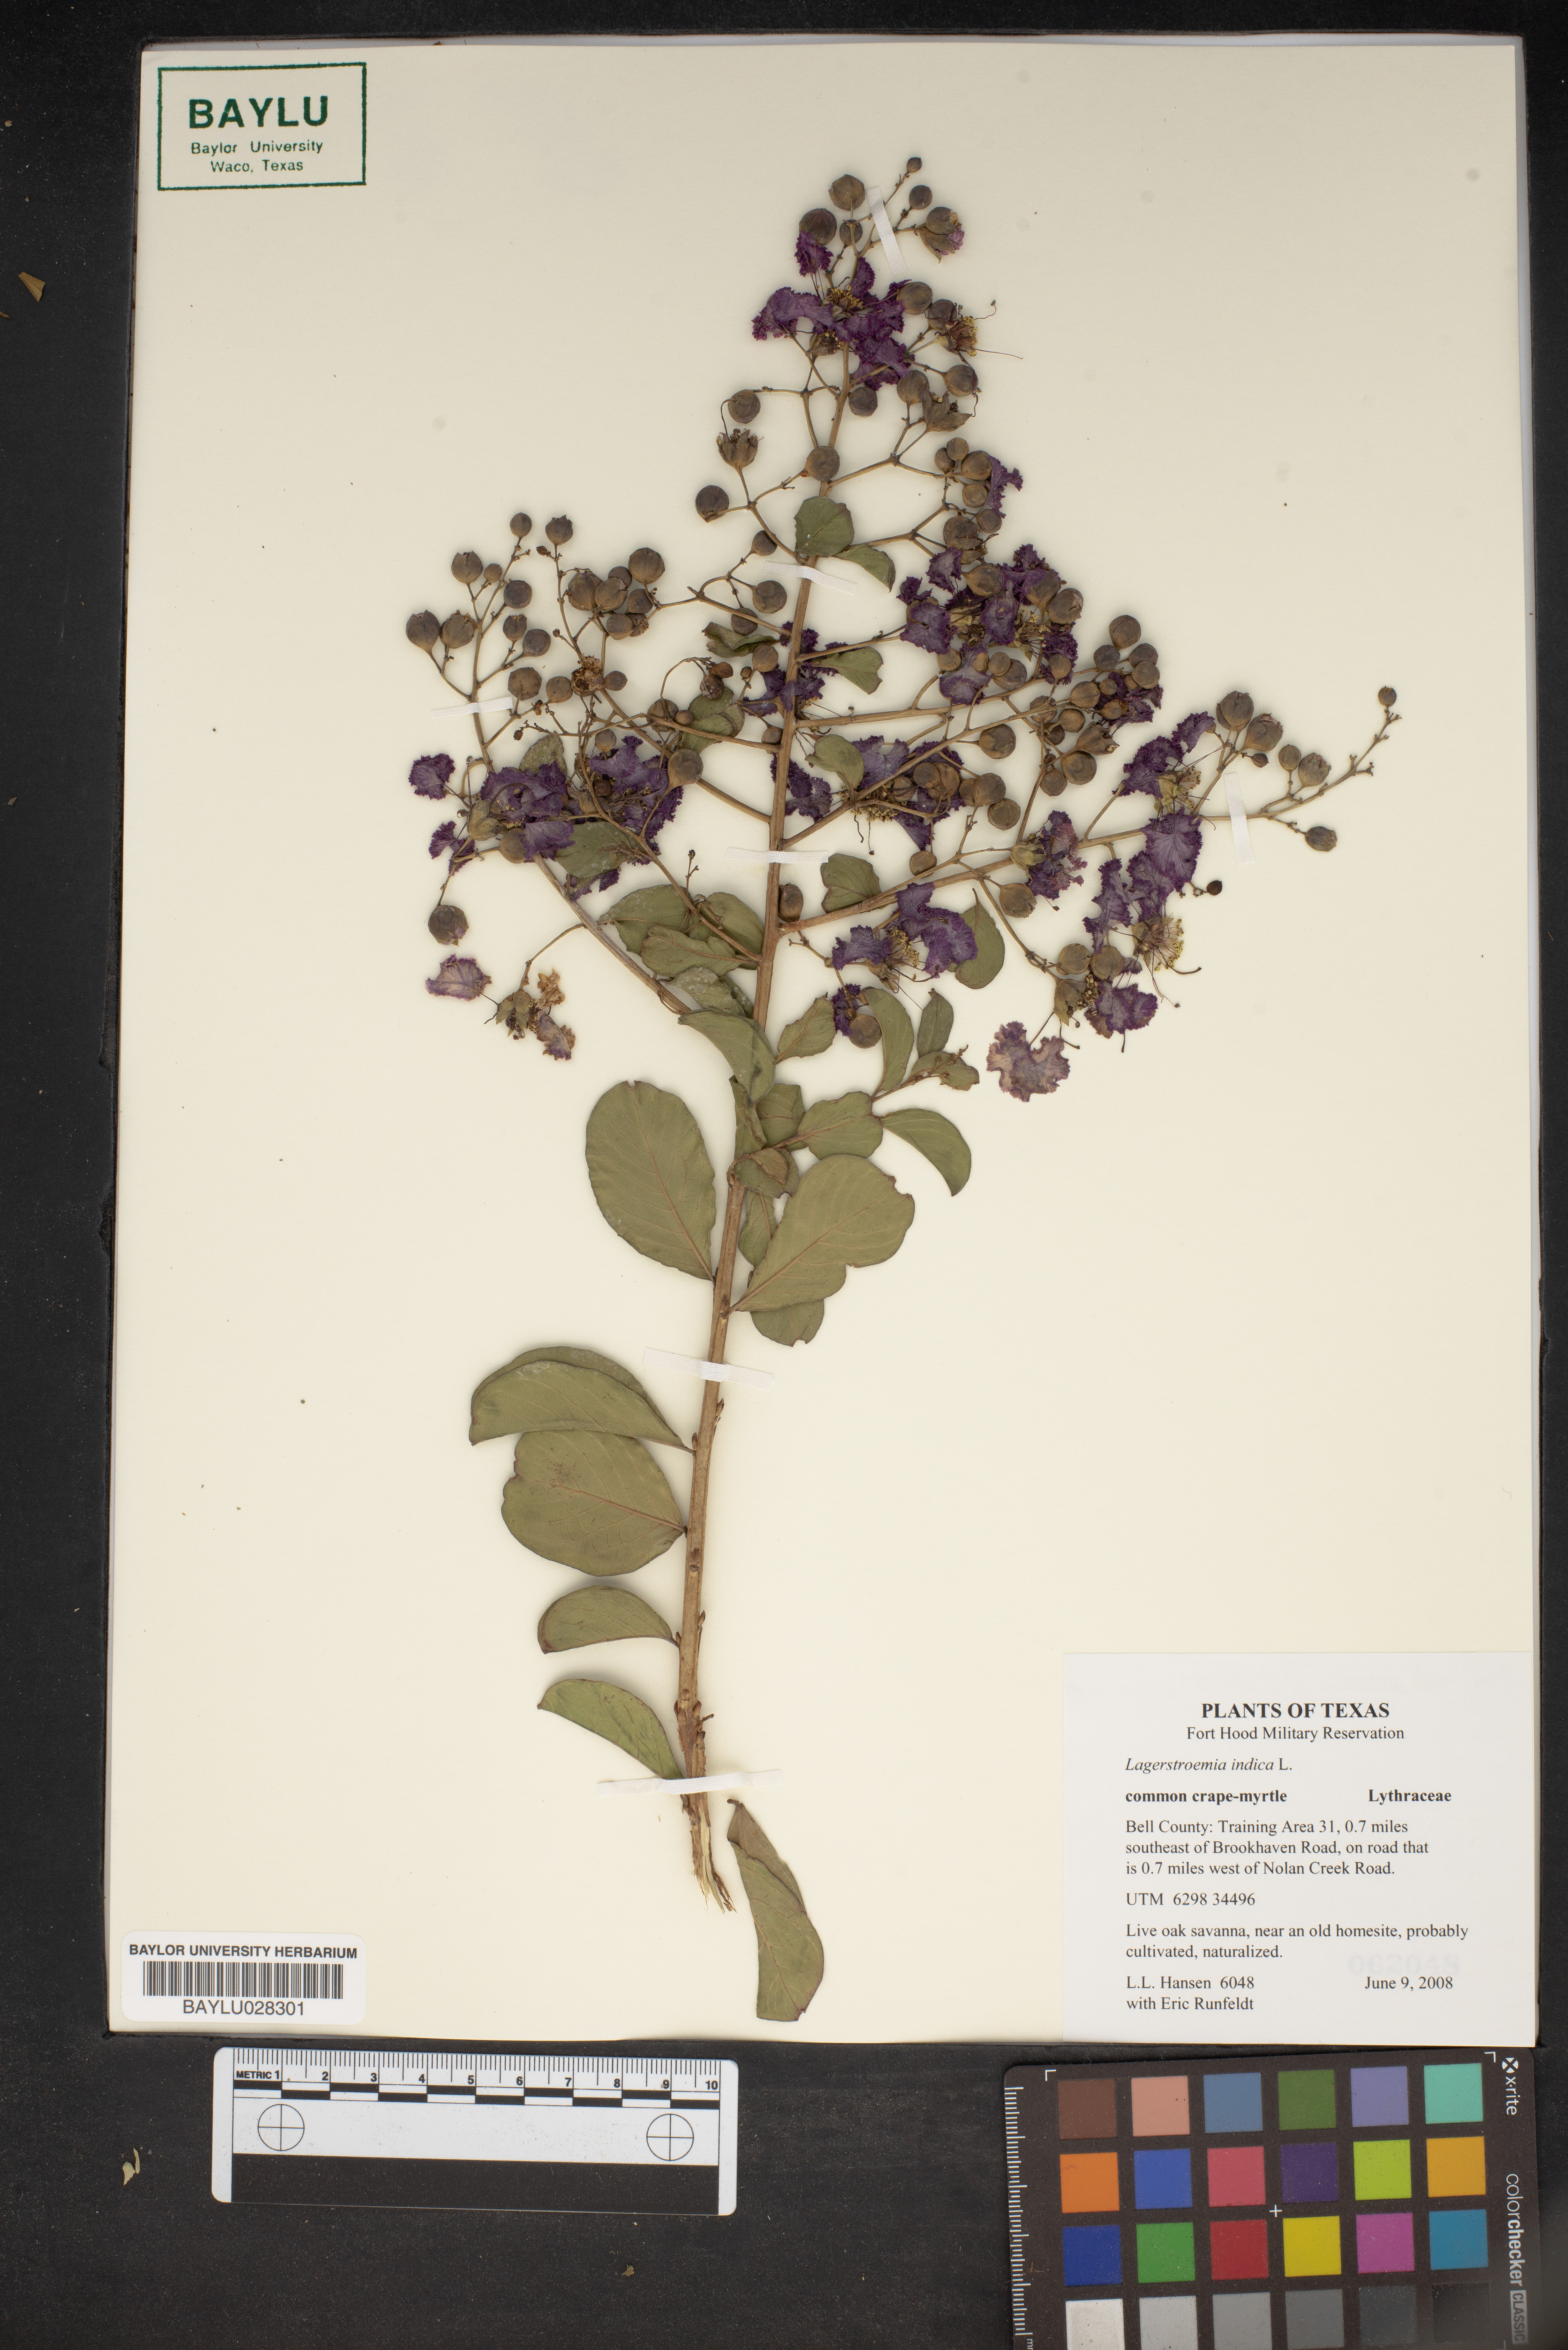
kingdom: Plantae
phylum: Tracheophyta
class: Magnoliopsida
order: Myrtales
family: Lythraceae
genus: Lagerstroemia
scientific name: Lagerstroemia indica
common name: Crape-myrtle
